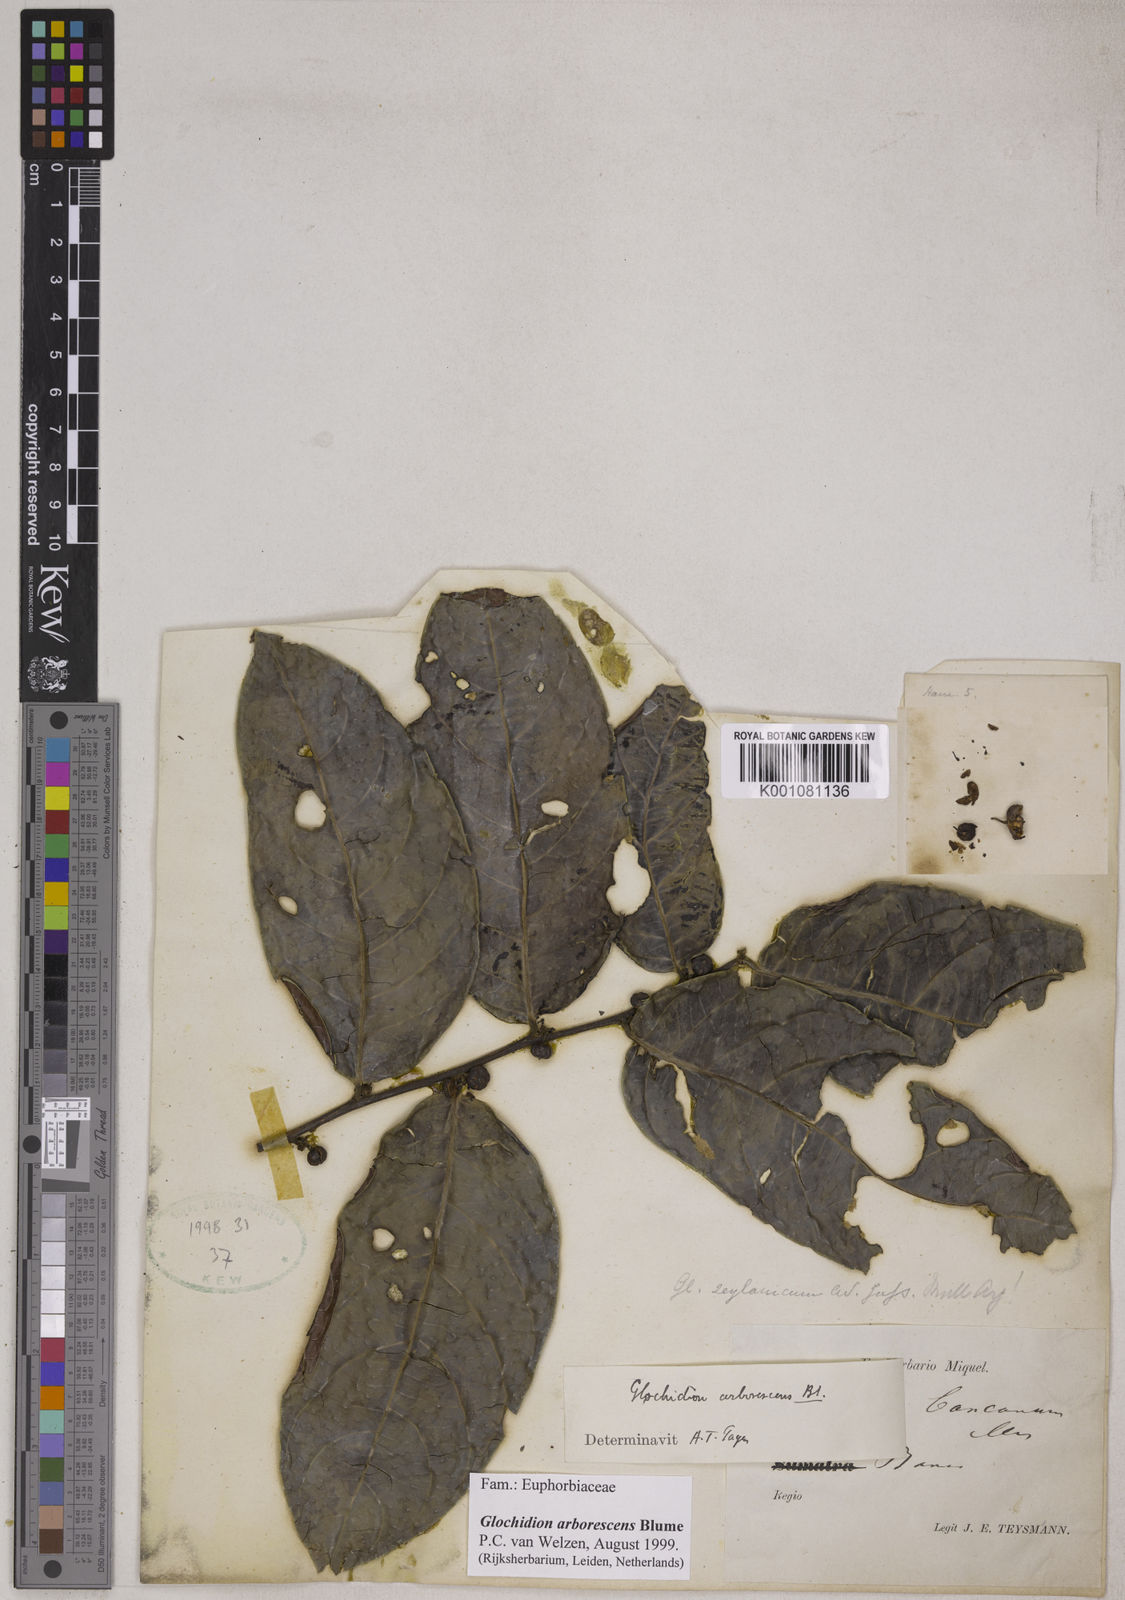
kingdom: Plantae
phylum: Tracheophyta
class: Magnoliopsida
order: Malpighiales
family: Phyllanthaceae
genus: Glochidion
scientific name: Glochidion zeylanicum
